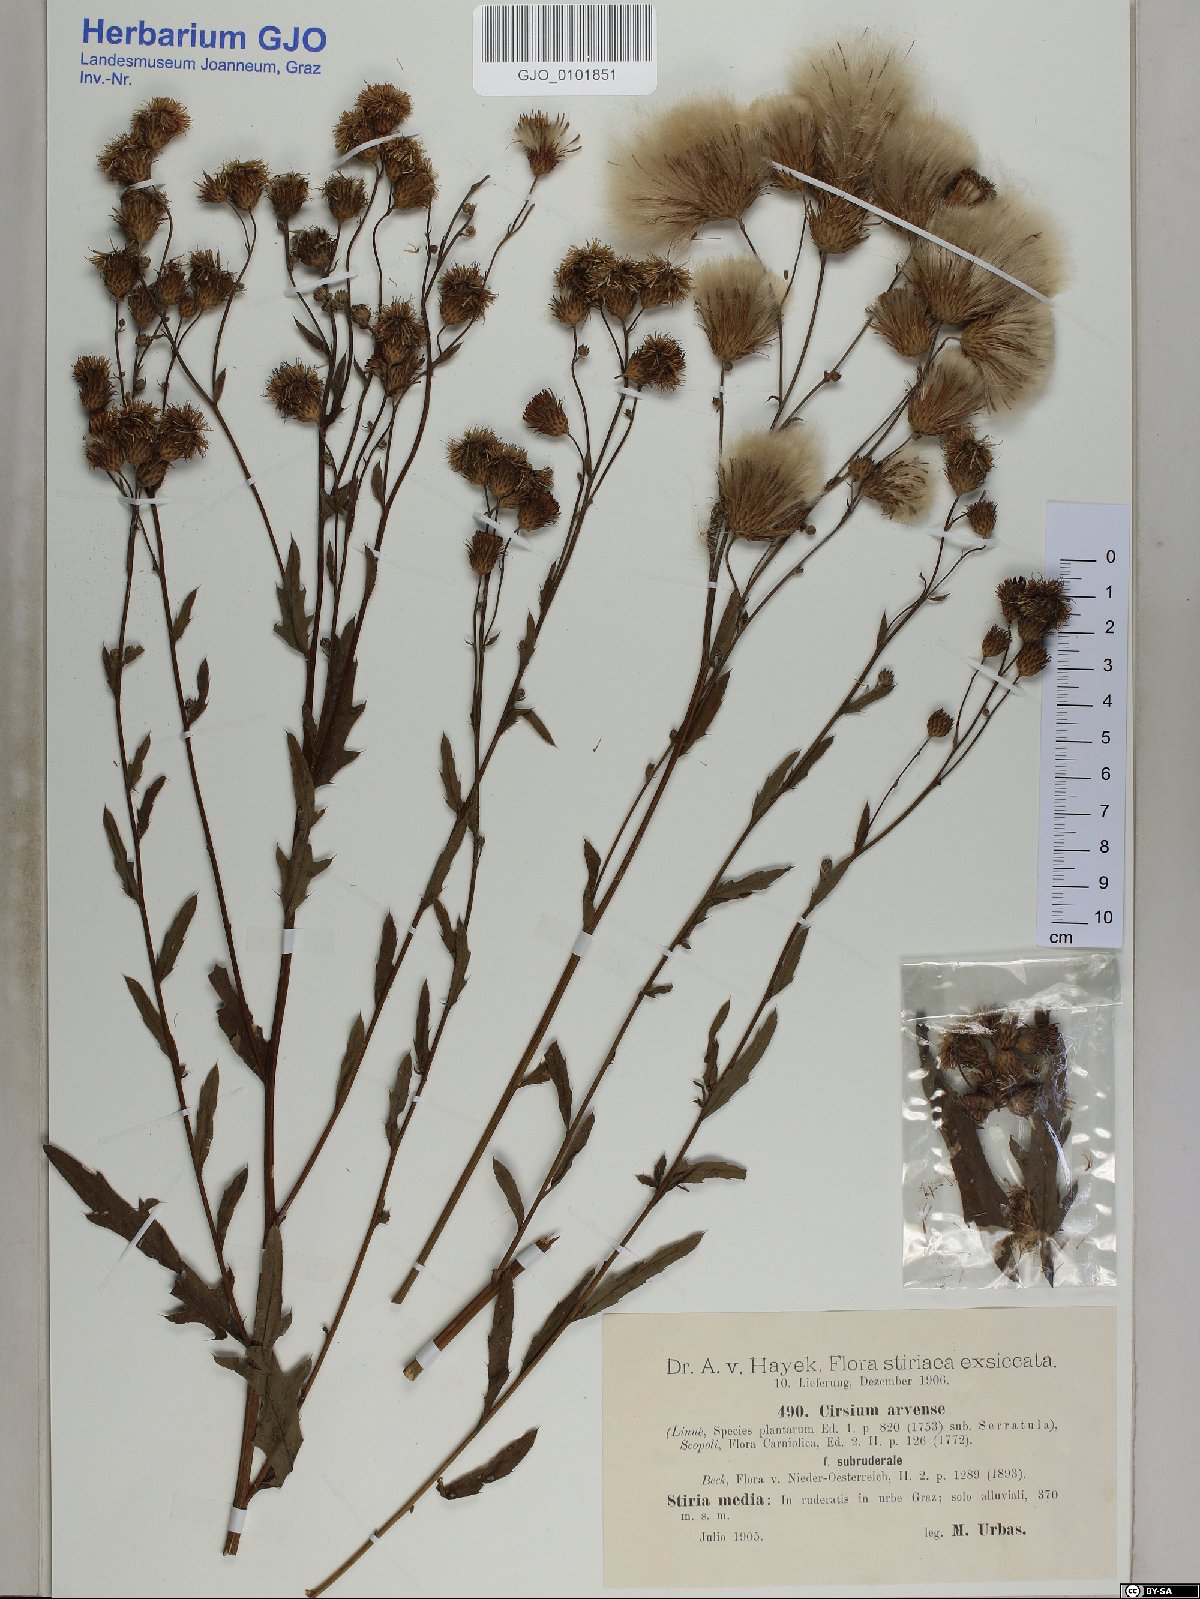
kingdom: Plantae
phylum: Tracheophyta
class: Magnoliopsida
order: Asterales
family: Asteraceae
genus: Cirsium
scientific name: Cirsium arvense
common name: Creeping thistle
